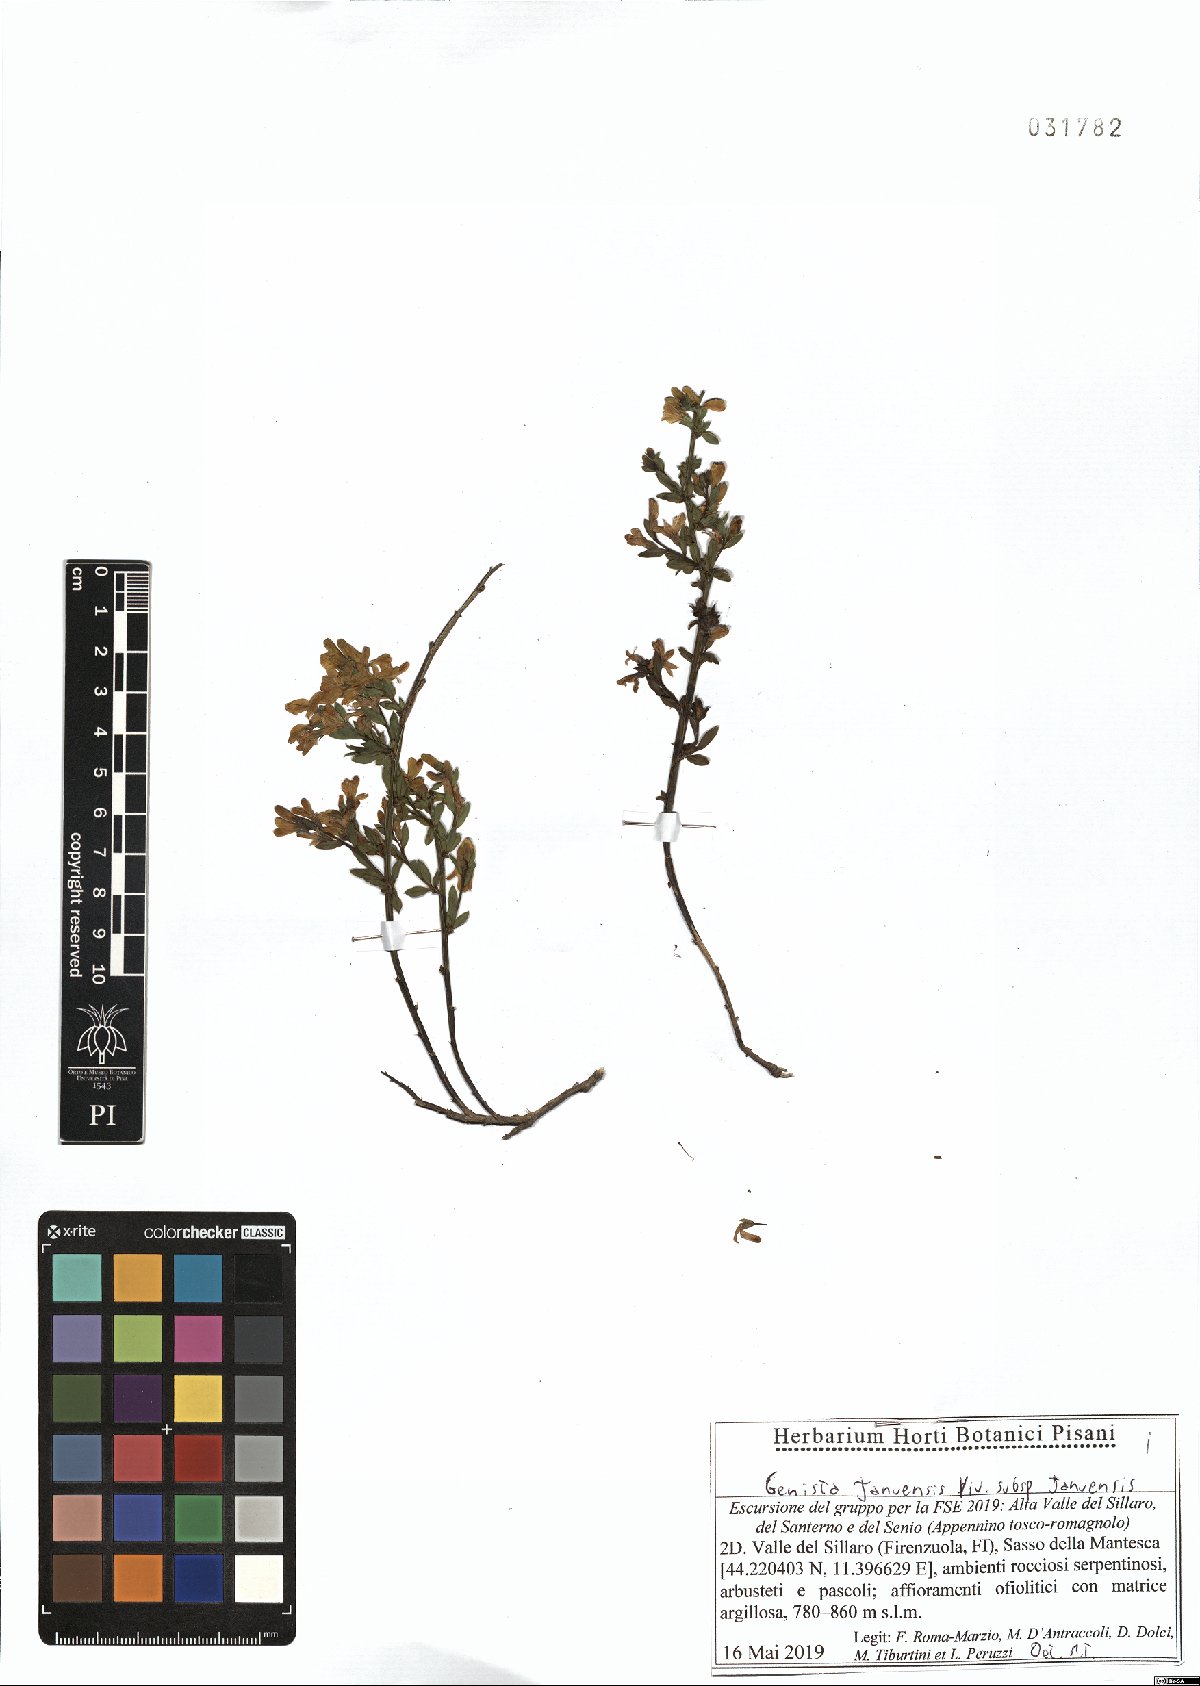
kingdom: Plantae
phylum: Tracheophyta
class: Magnoliopsida
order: Fabales
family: Fabaceae
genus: Genista
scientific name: Genista januensis
